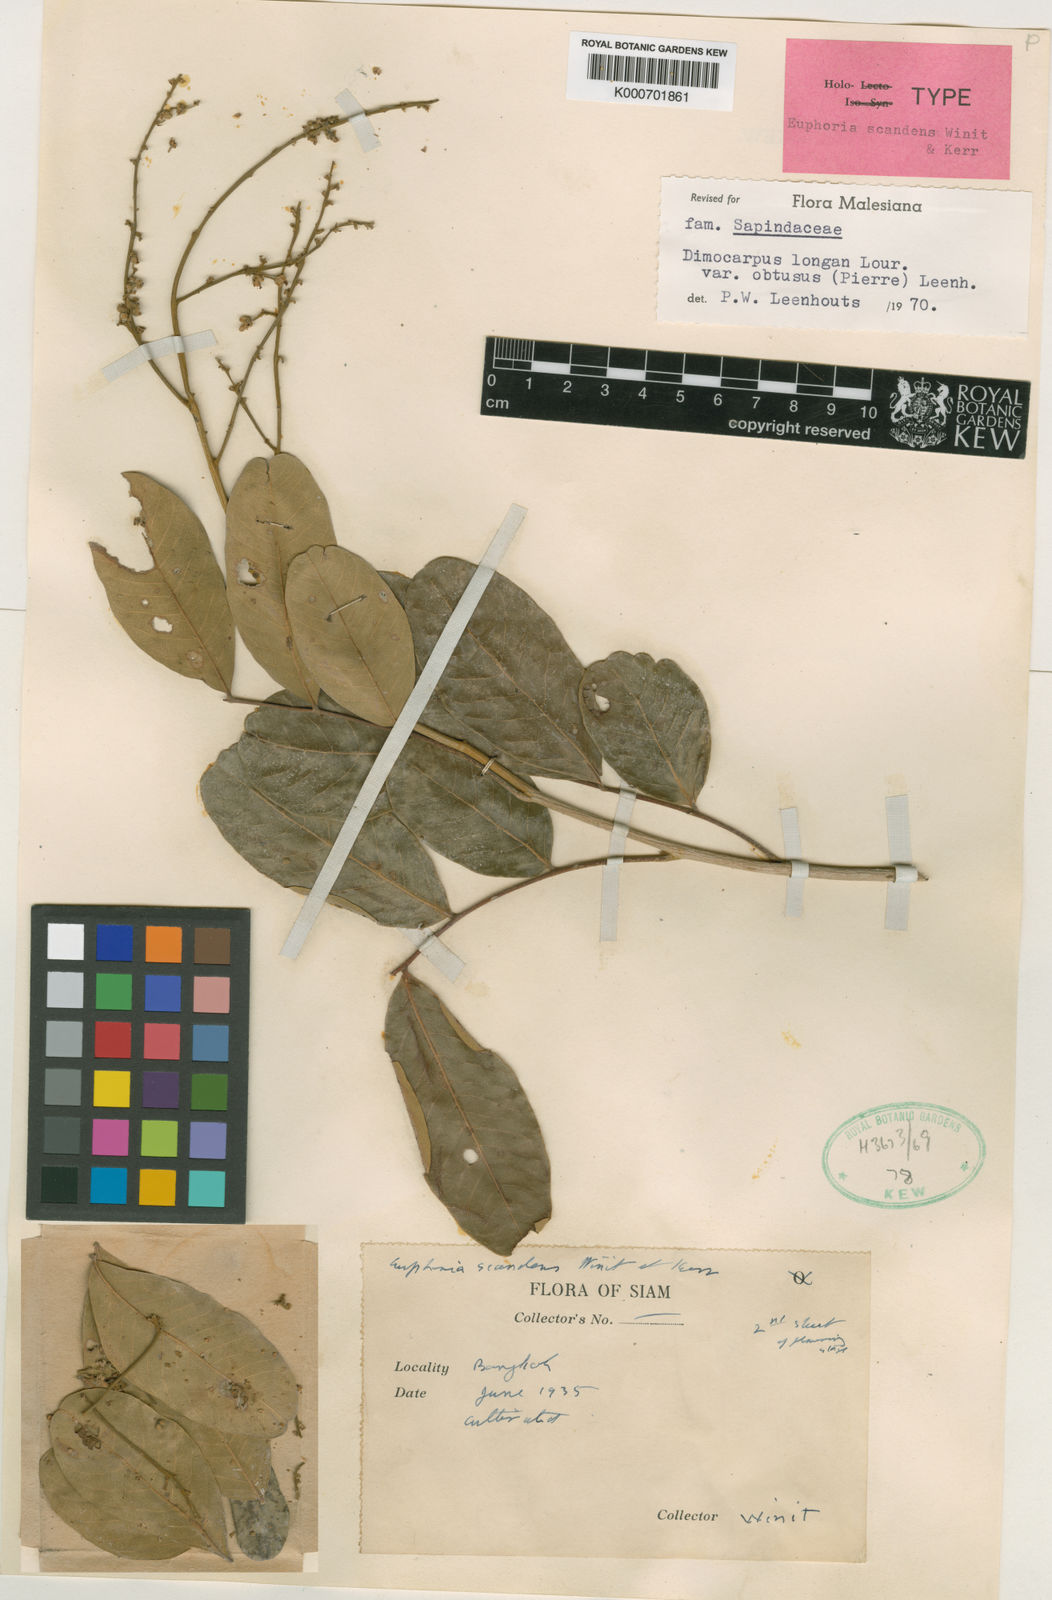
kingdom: Plantae
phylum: Tracheophyta
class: Magnoliopsida
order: Sapindales
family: Sapindaceae
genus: Dimocarpus
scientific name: Dimocarpus obtusus
